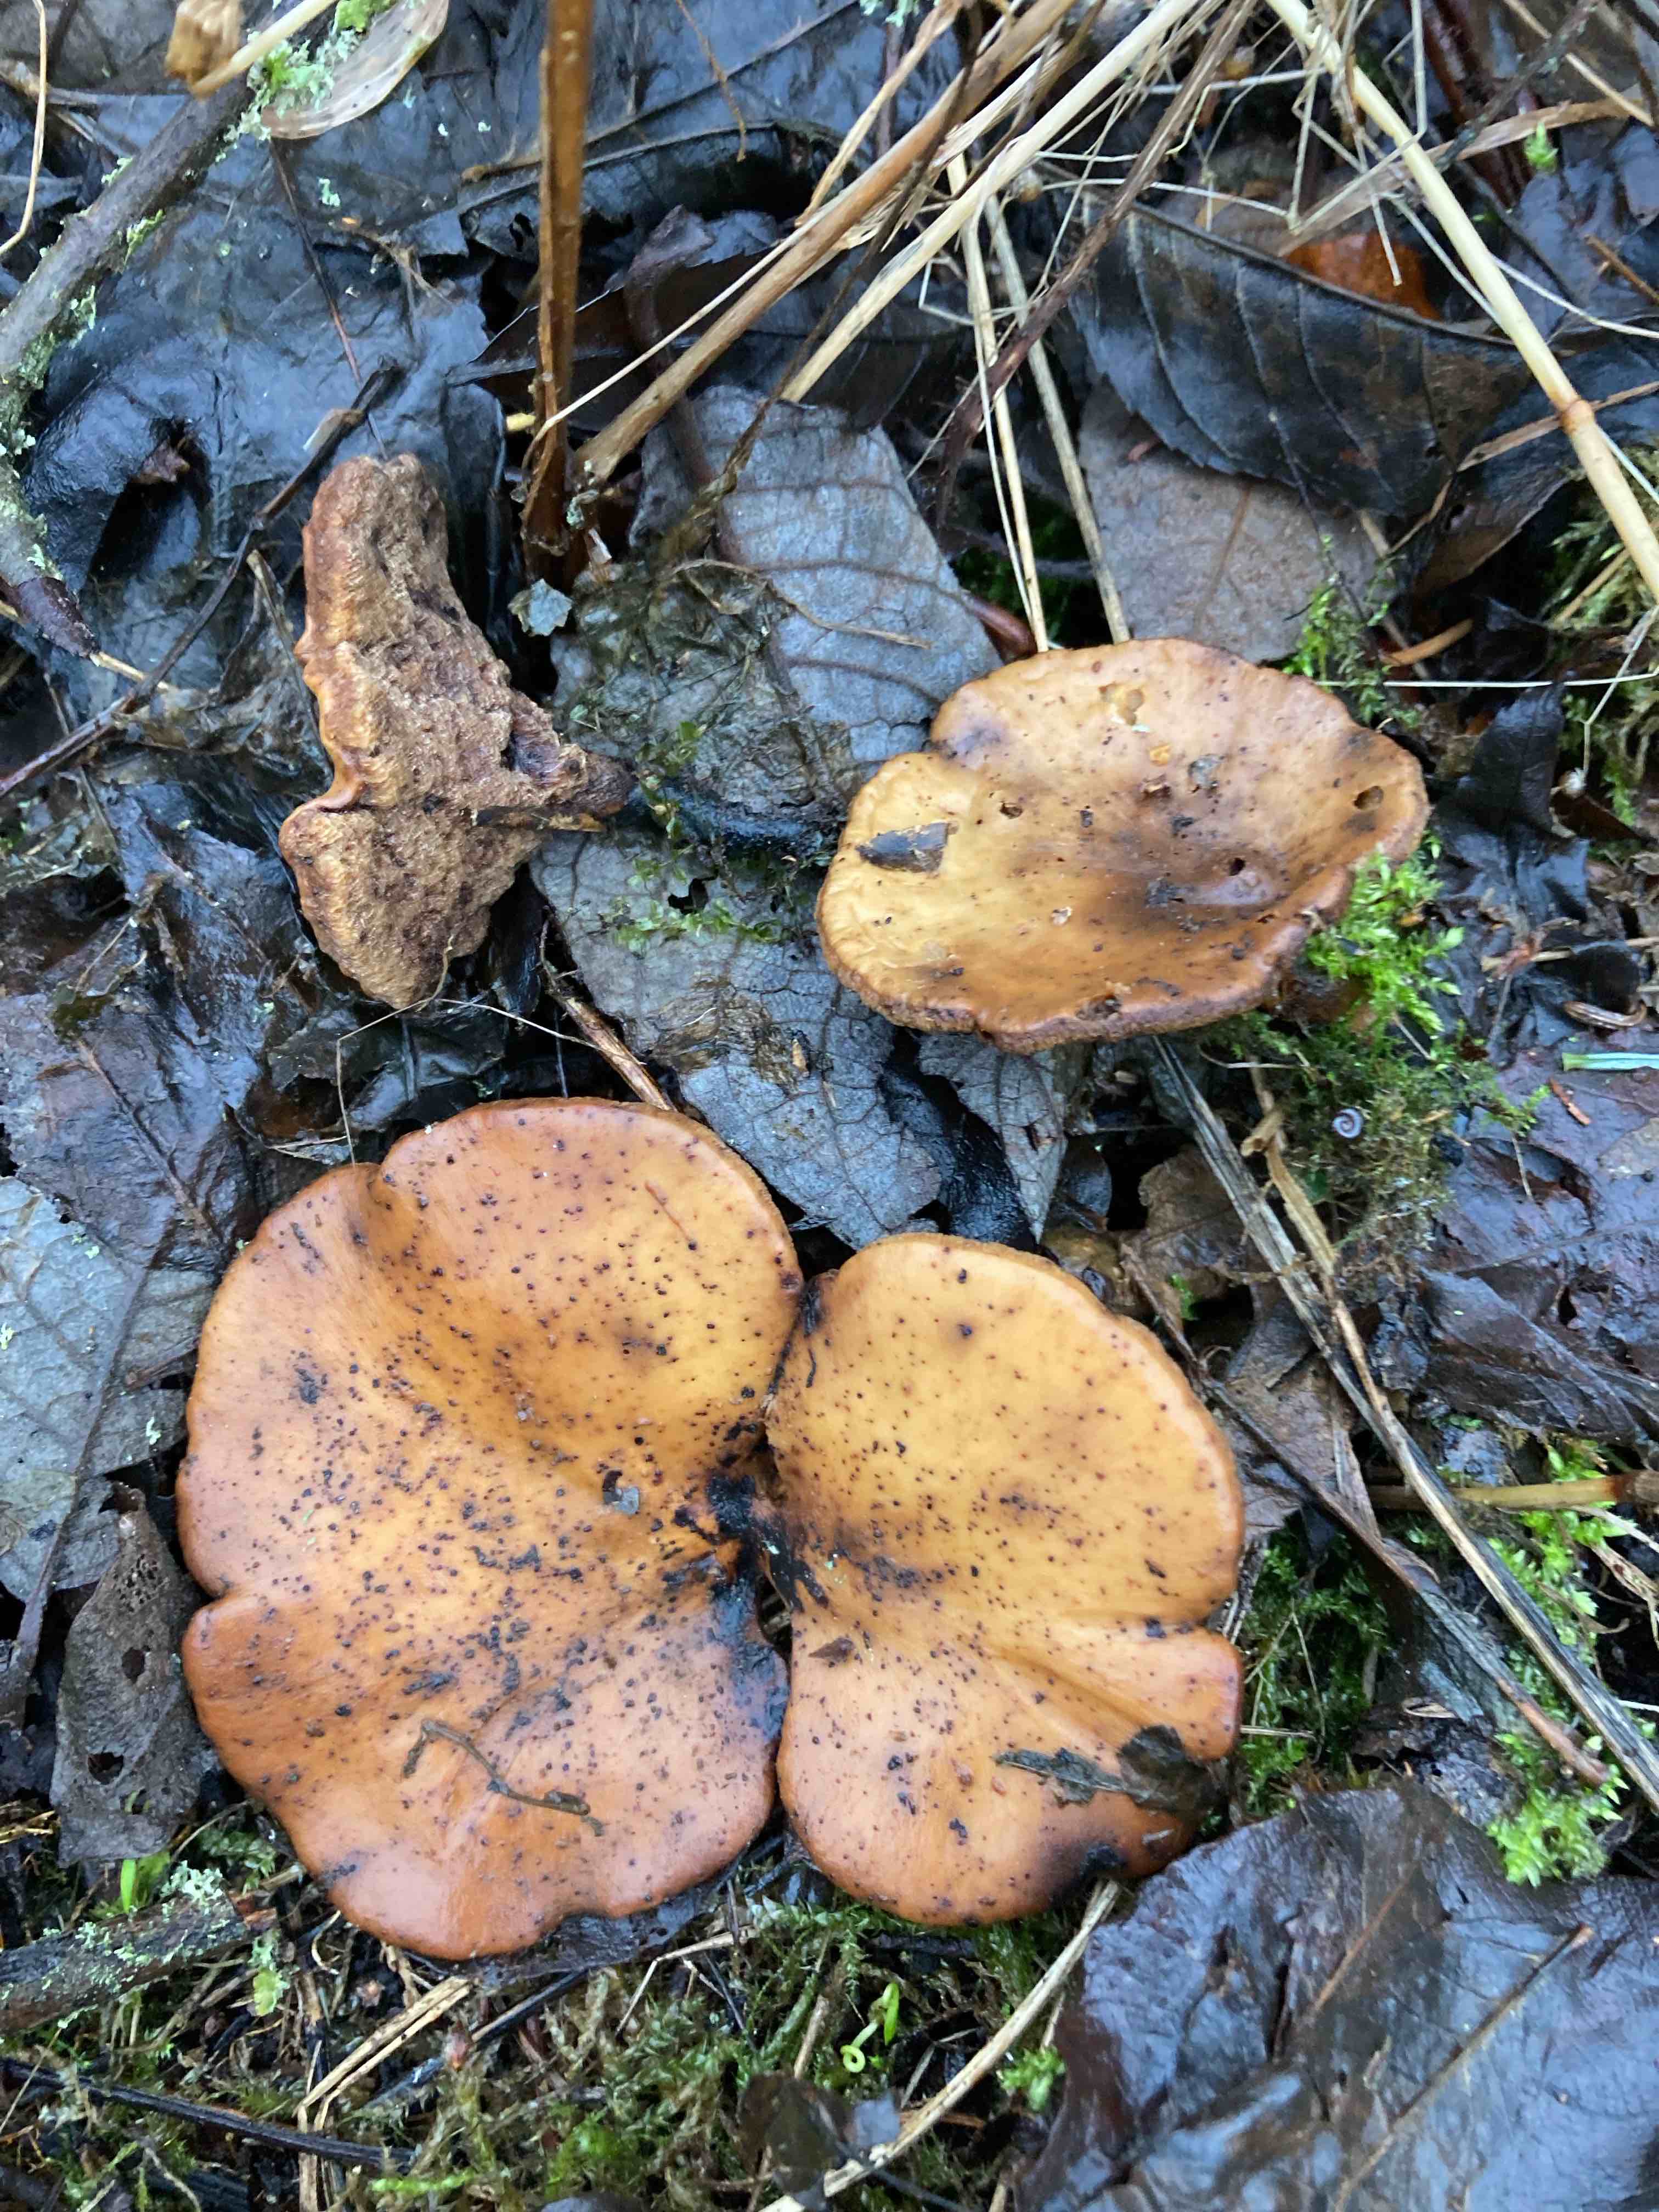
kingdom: Fungi
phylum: Basidiomycota
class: Agaricomycetes
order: Polyporales
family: Polyporaceae
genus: Cerioporus
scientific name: Cerioporus varius
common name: foranderlig stilkporesvamp
